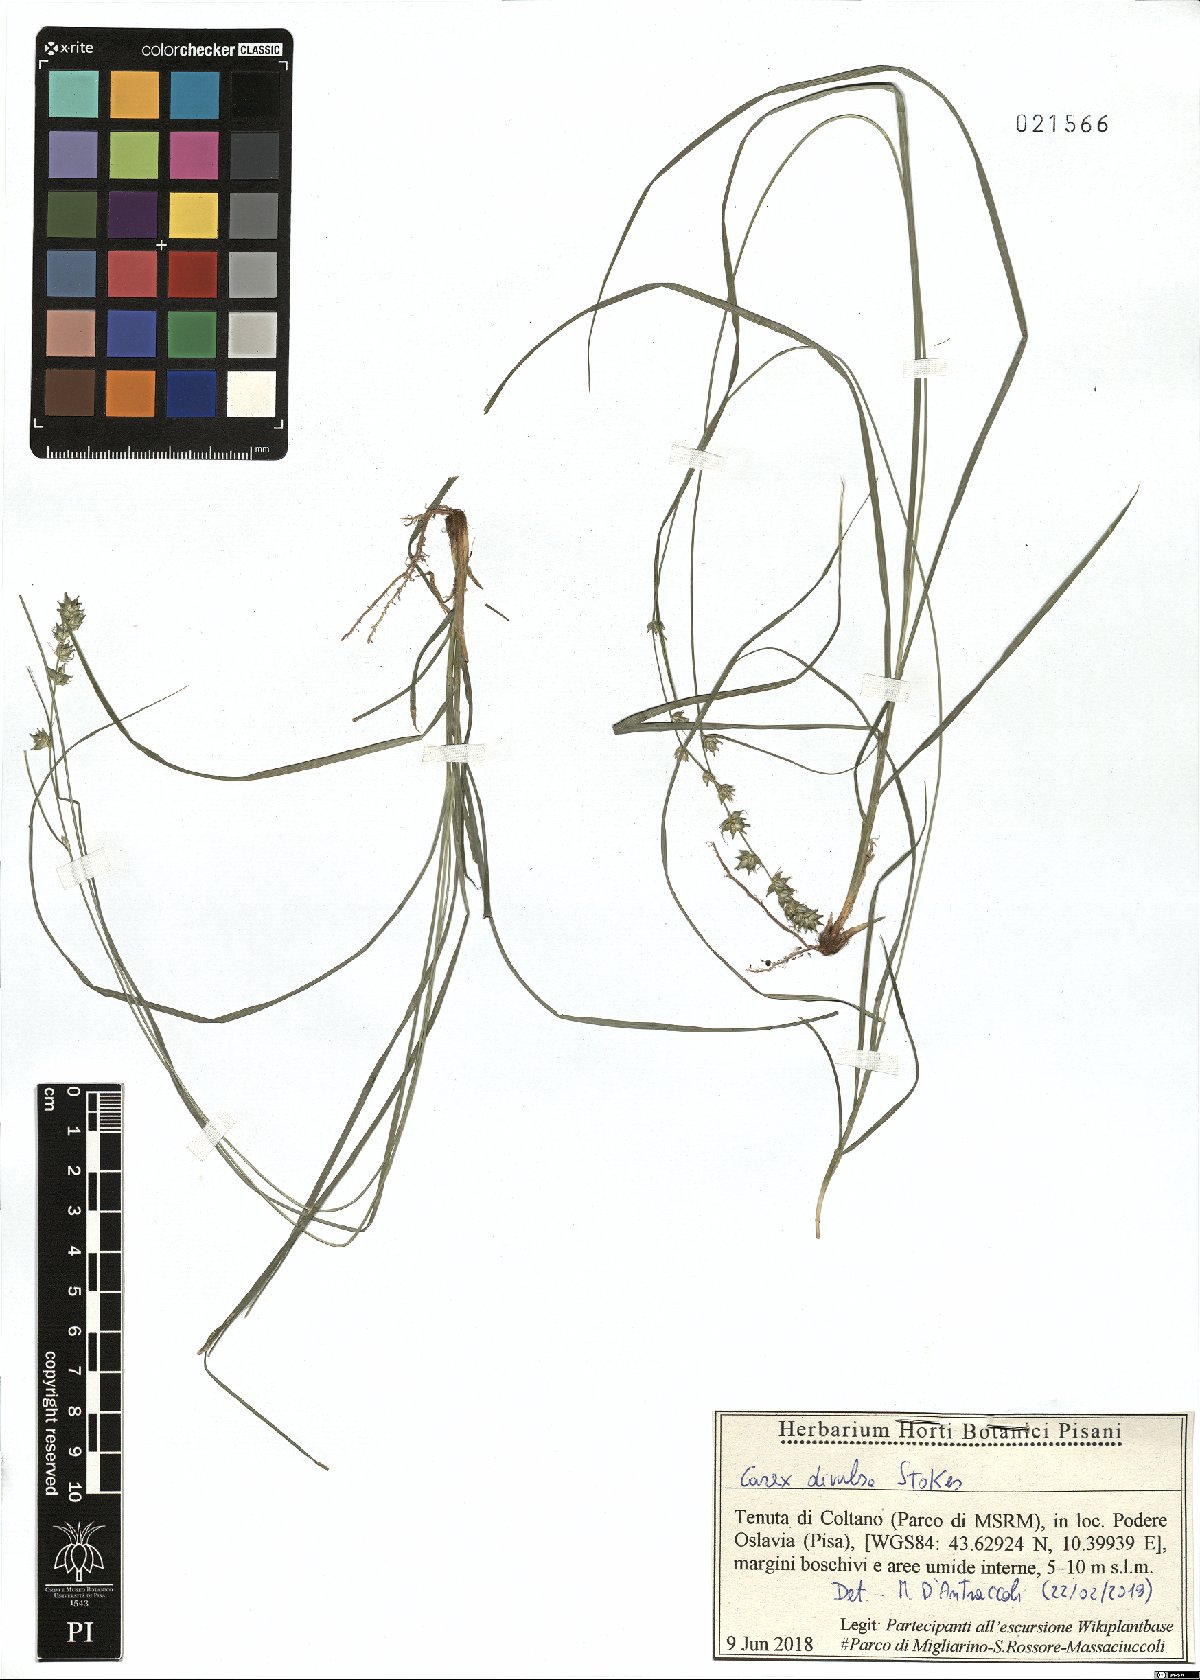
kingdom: Plantae
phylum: Tracheophyta
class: Liliopsida
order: Poales
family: Cyperaceae
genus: Carex
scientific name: Carex divulsa
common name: Grassland sedge
